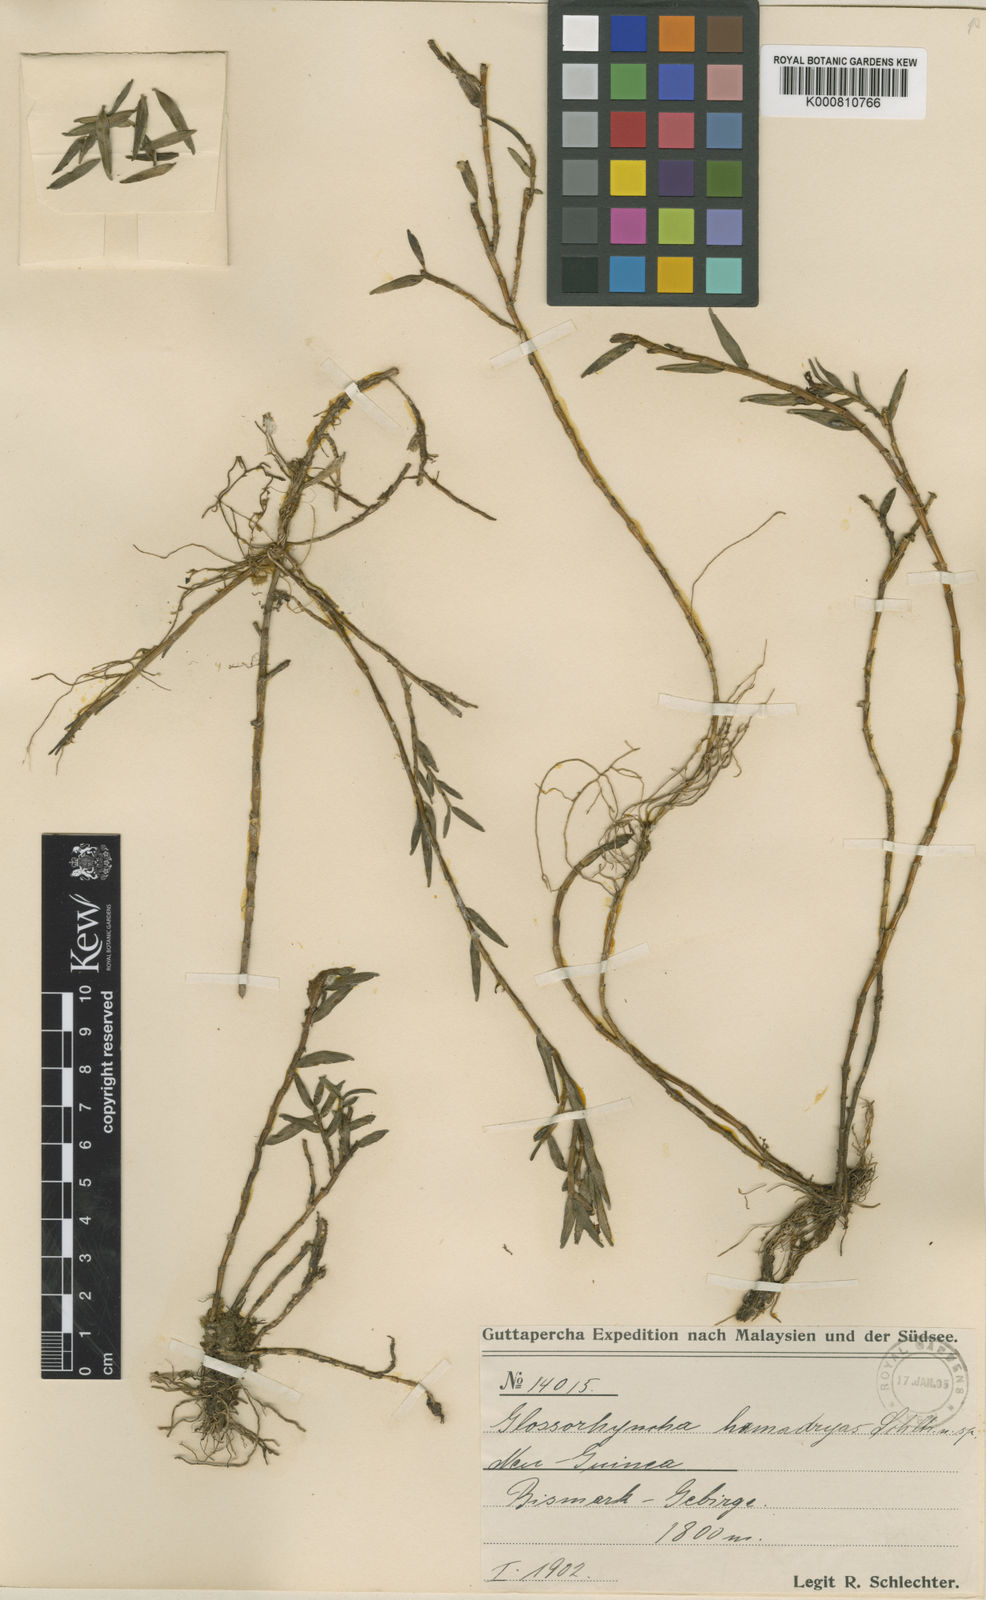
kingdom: Plantae
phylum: Tracheophyta
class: Liliopsida
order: Asparagales
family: Orchidaceae
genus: Glomera
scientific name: Glomera
